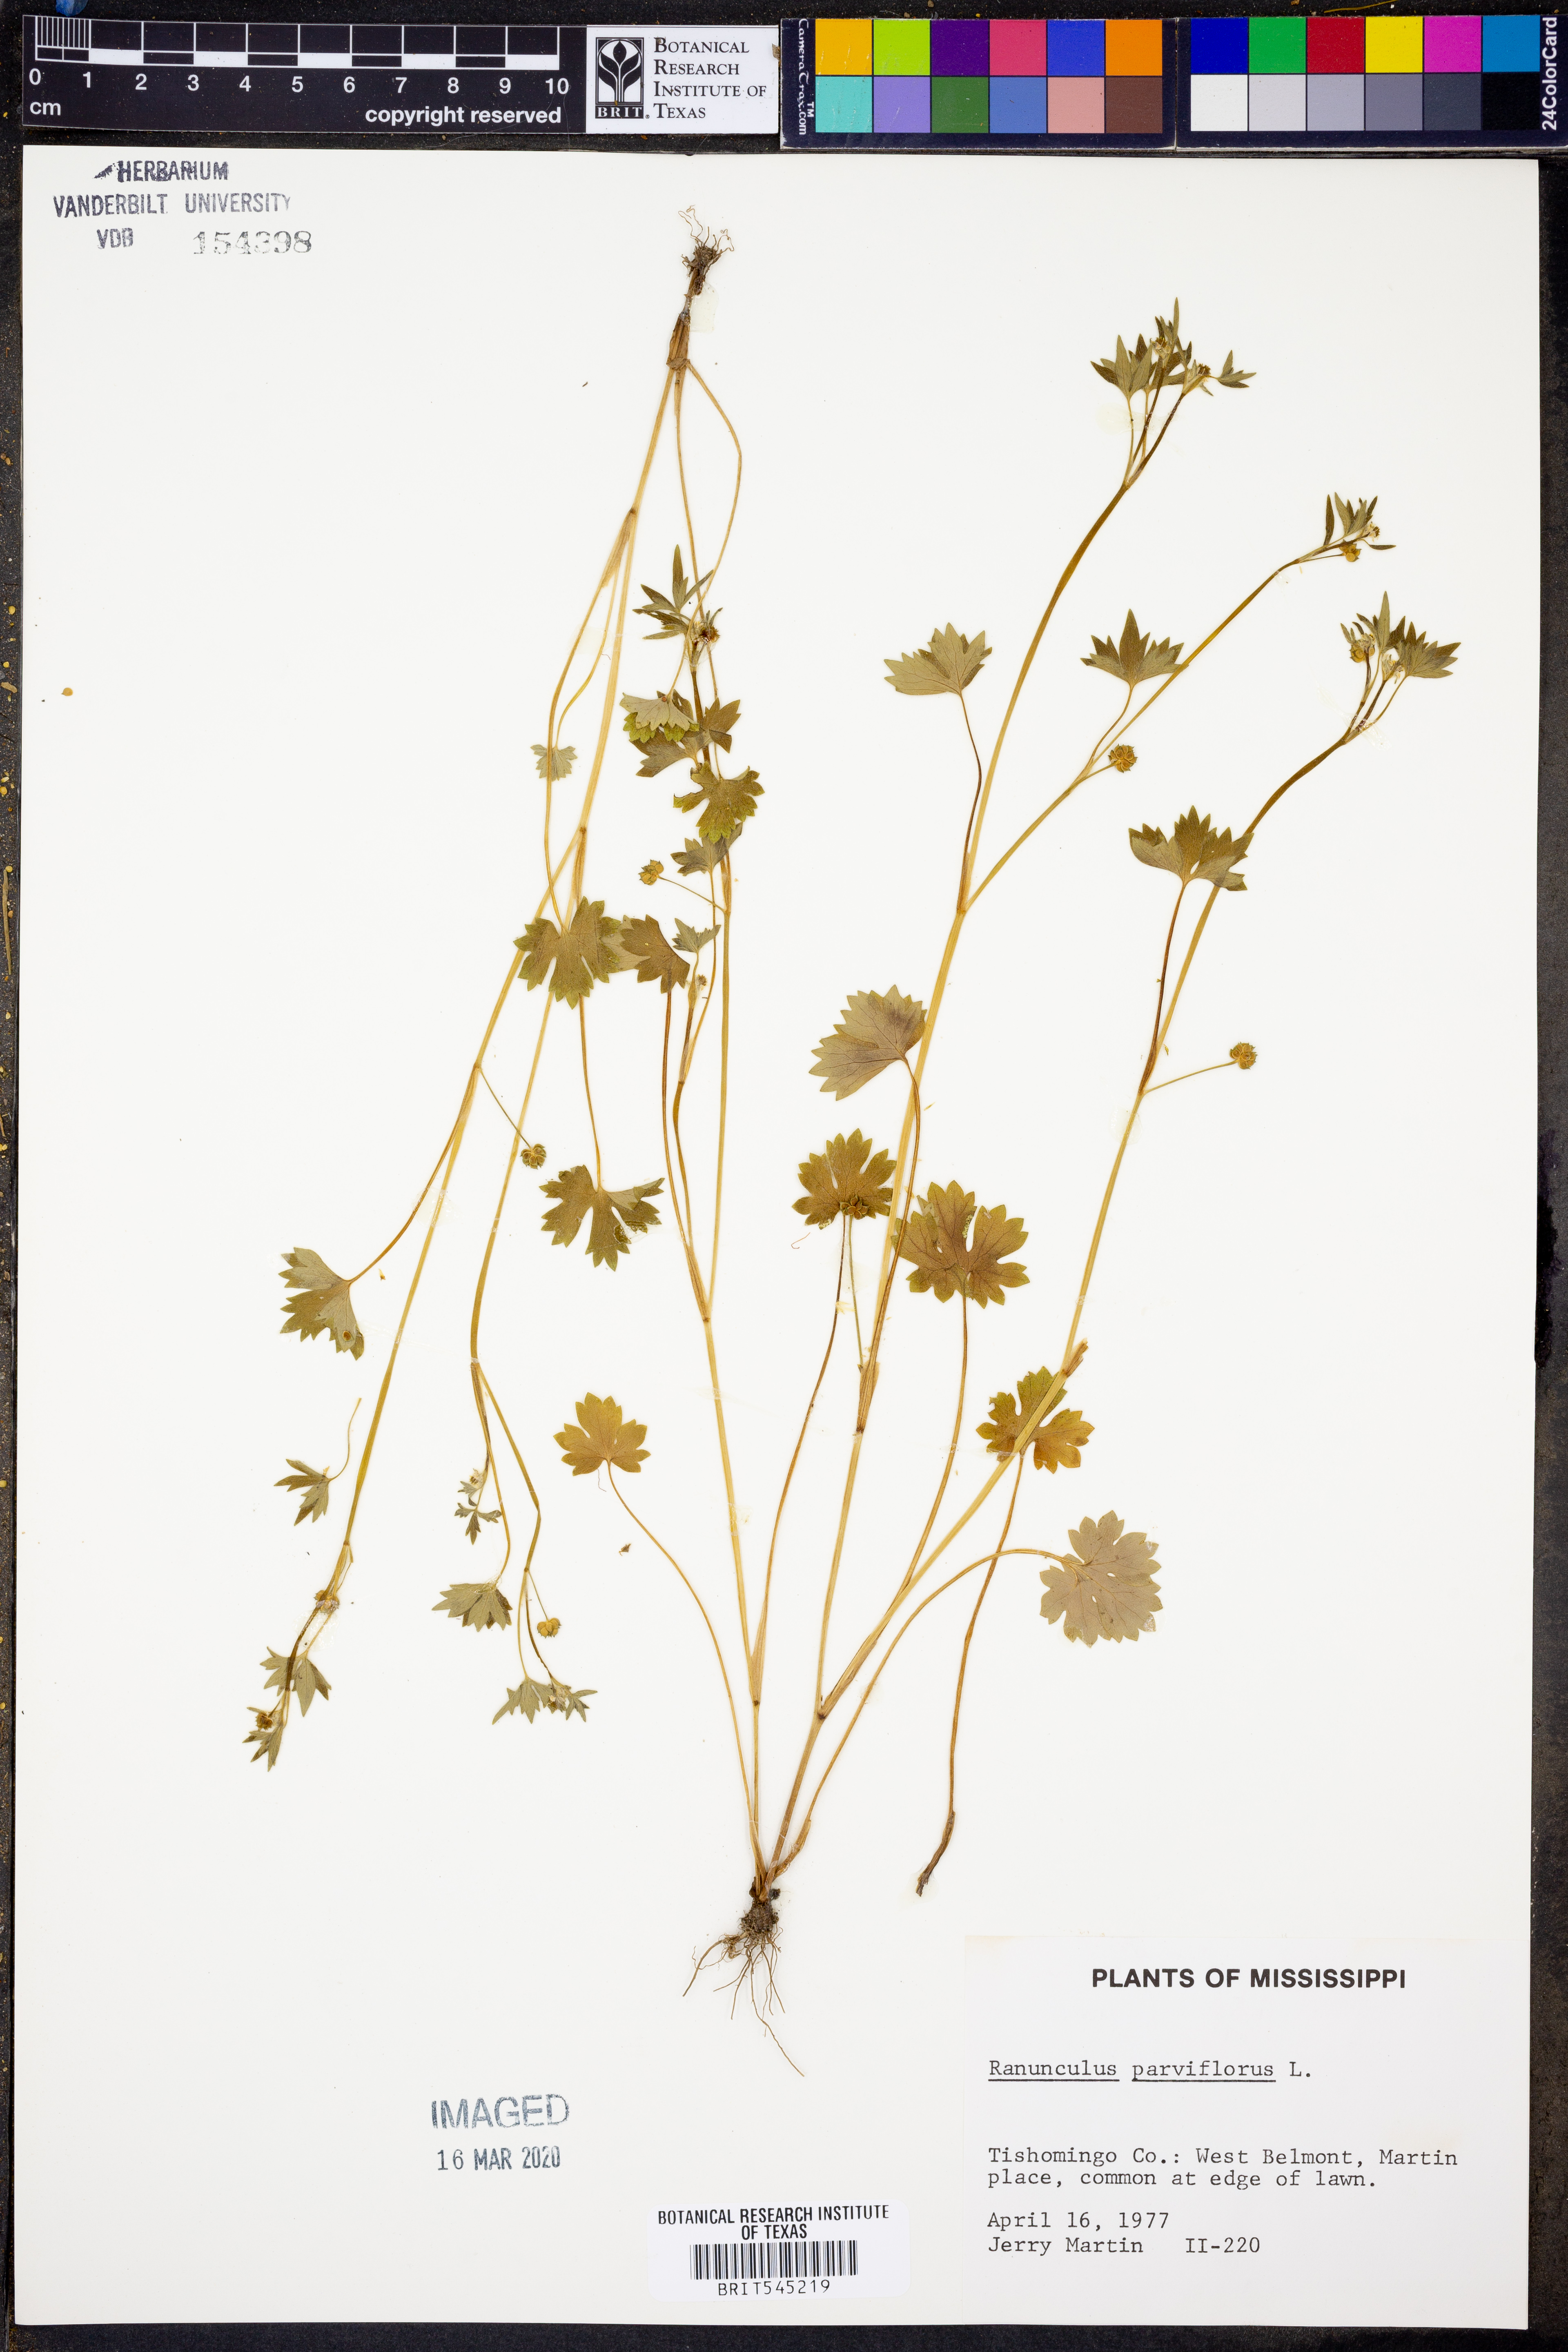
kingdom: Plantae
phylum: Tracheophyta
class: Magnoliopsida
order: Ranunculales
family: Ranunculaceae
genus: Ranunculus
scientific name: Ranunculus parviflorus
